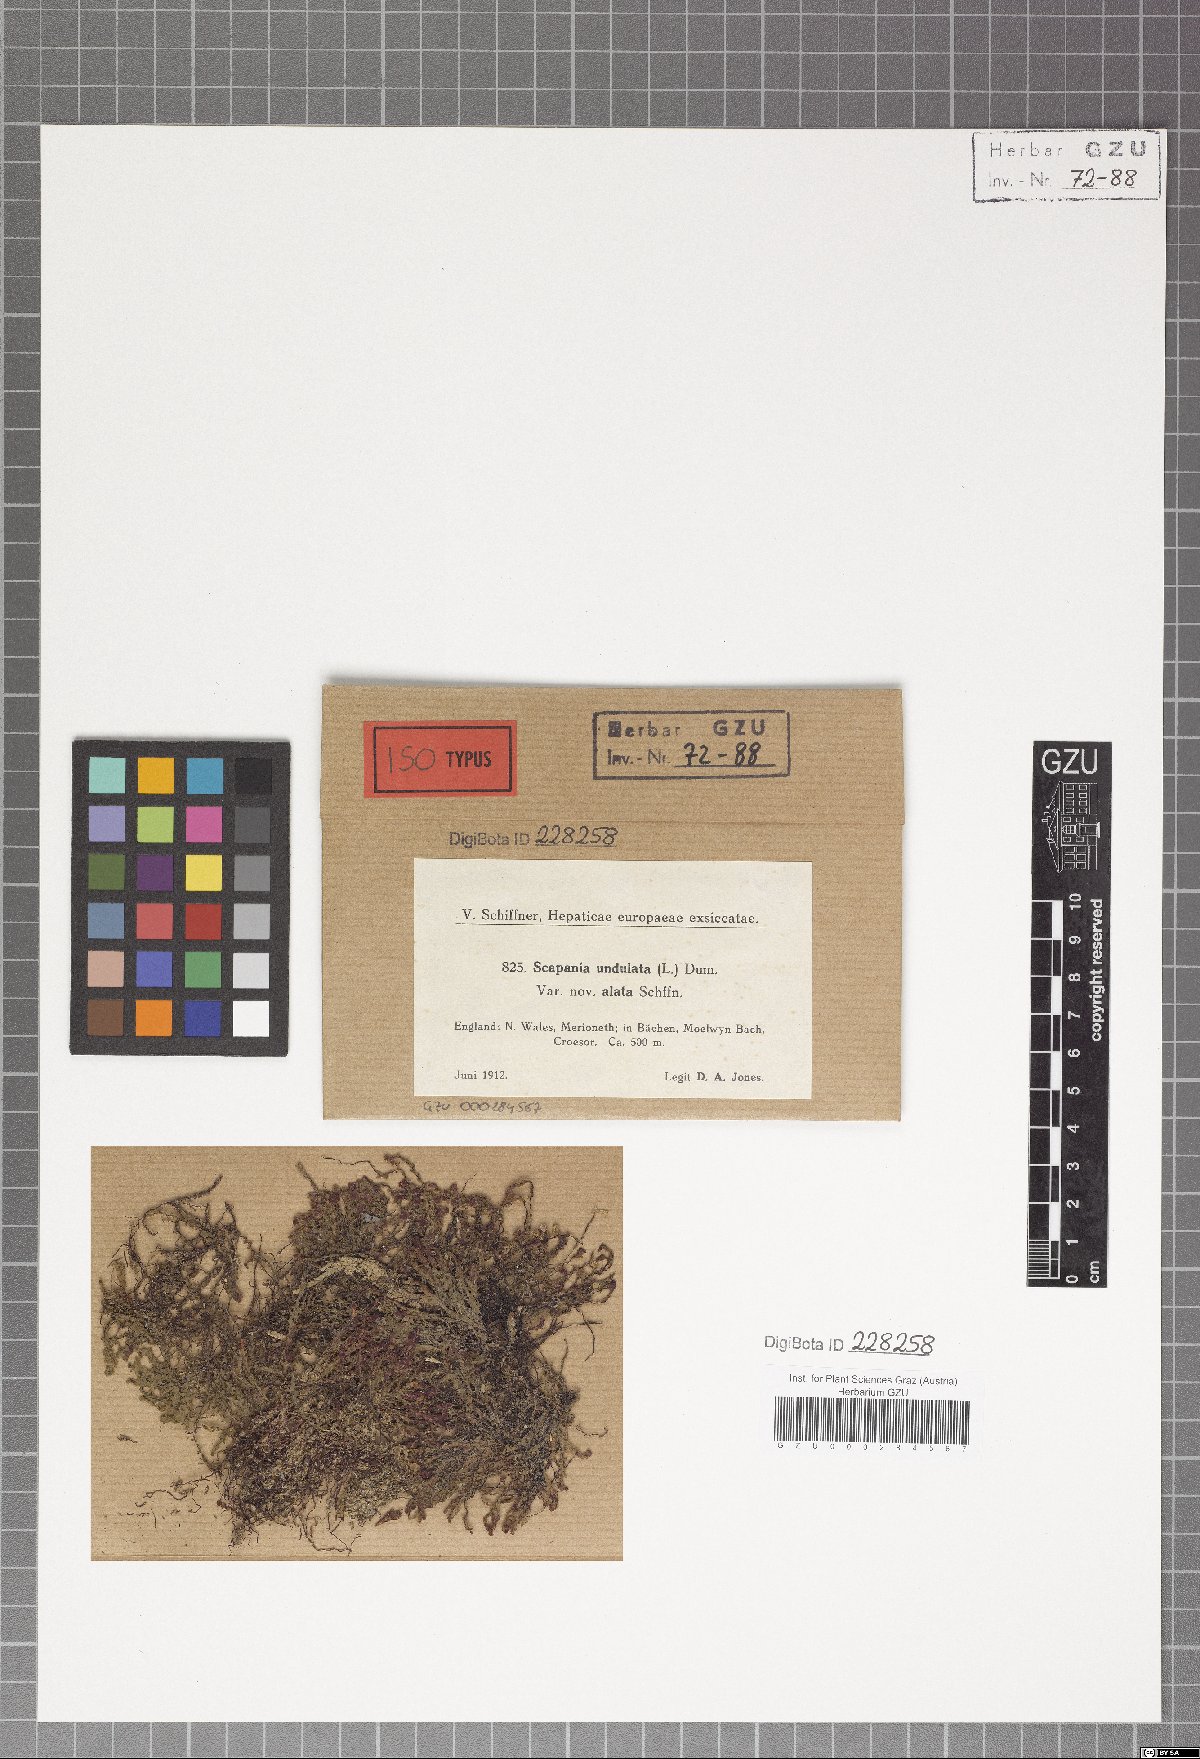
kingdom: Plantae
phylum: Marchantiophyta
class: Jungermanniopsida
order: Jungermanniales
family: Scapaniaceae
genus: Scapania
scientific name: Scapania undulata
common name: Water earwort
